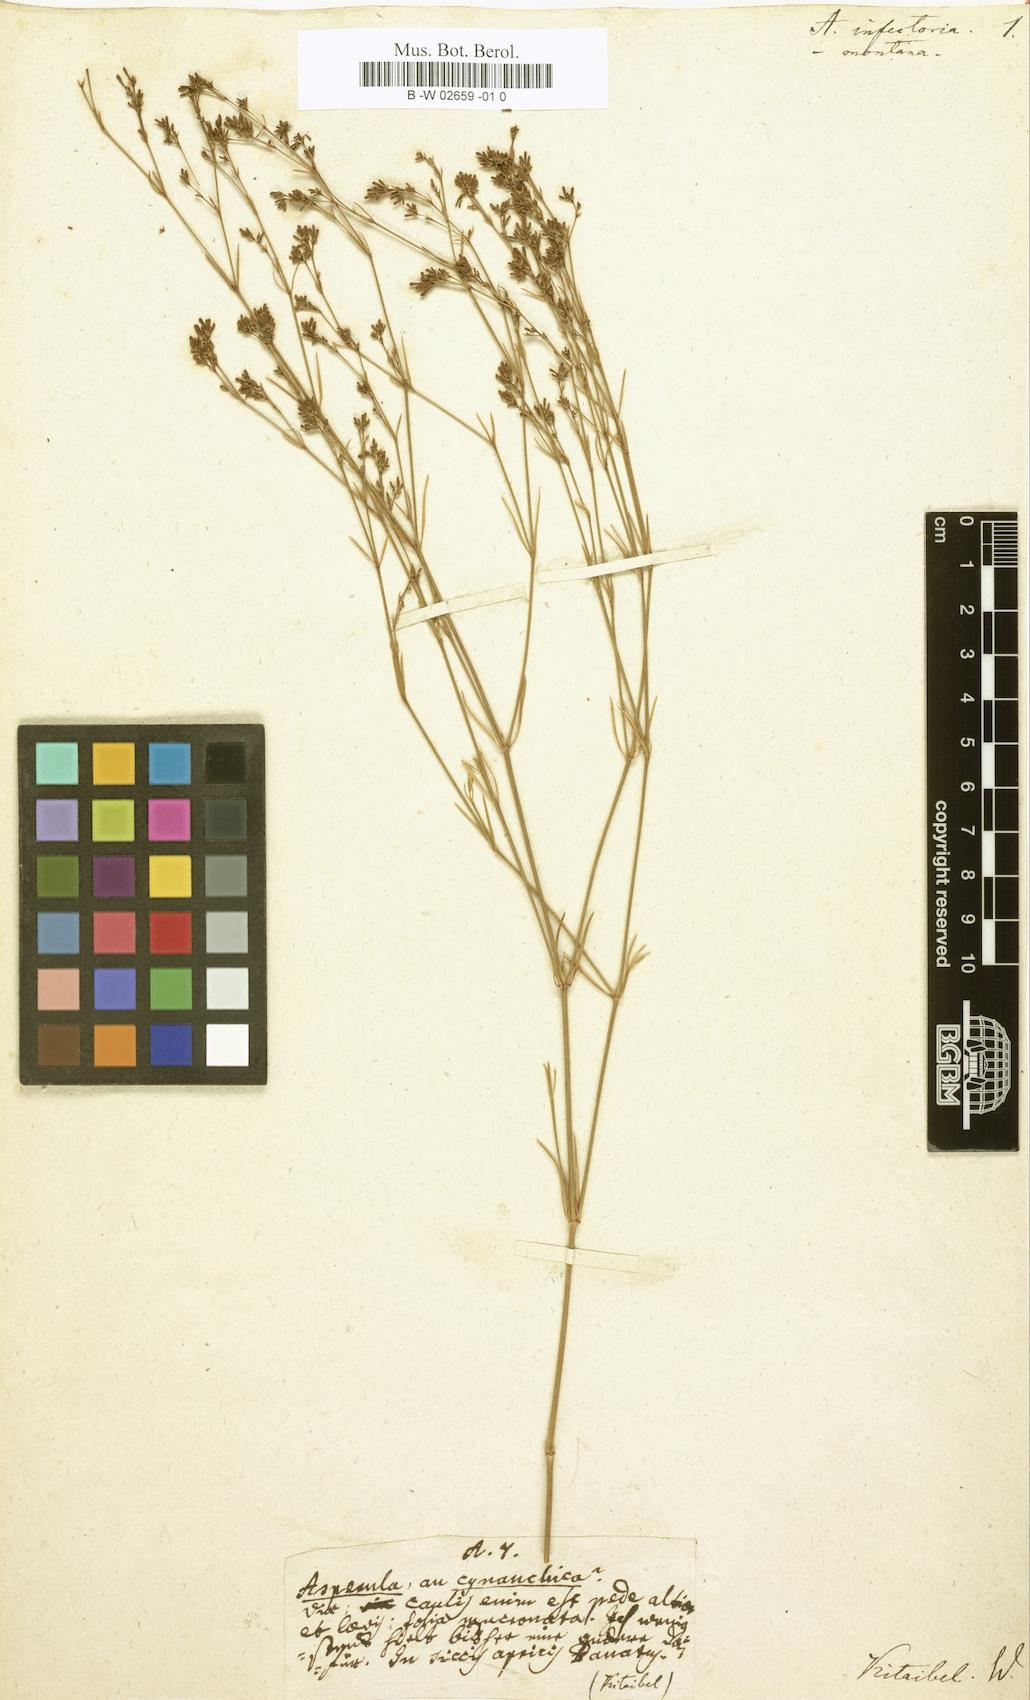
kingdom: Plantae
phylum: Tracheophyta
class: Magnoliopsida
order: Gentianales
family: Rubiaceae
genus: Asperula
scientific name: Asperula
